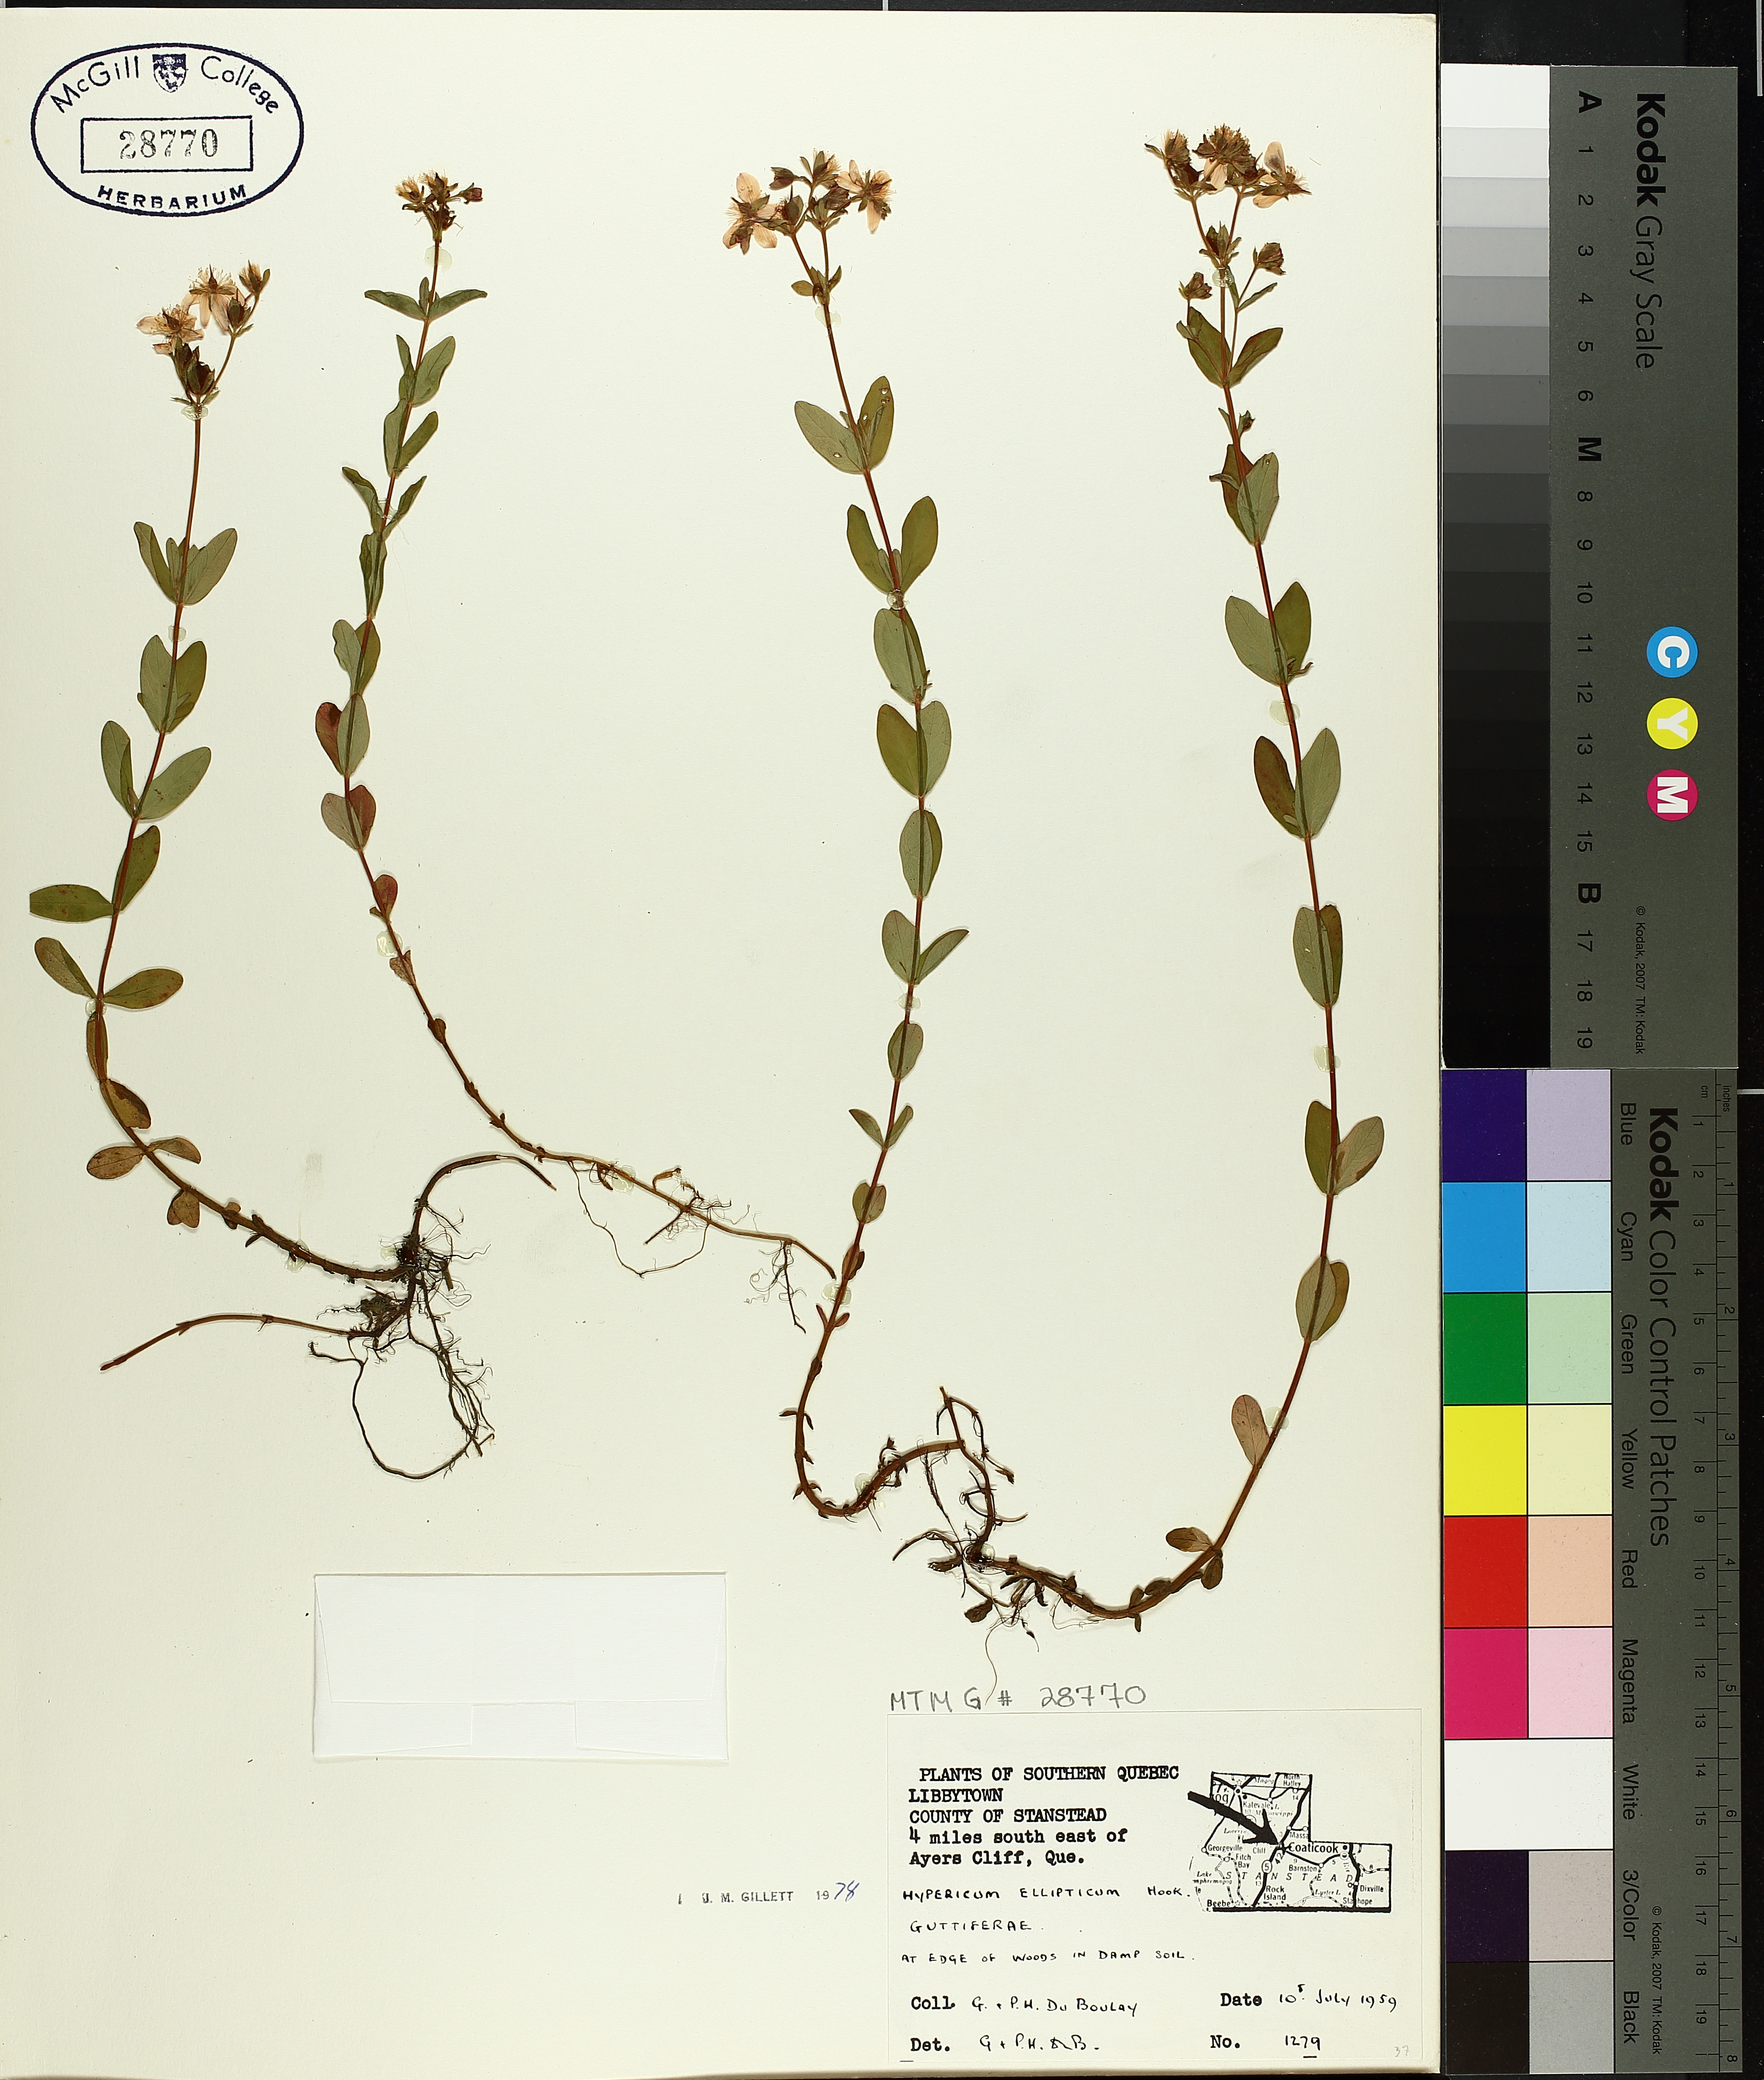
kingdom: Plantae
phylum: Tracheophyta
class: Magnoliopsida
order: Malpighiales
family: Hypericaceae
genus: Hypericum
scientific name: Hypericum ellipticum
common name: Elliptic st. john's-wort
